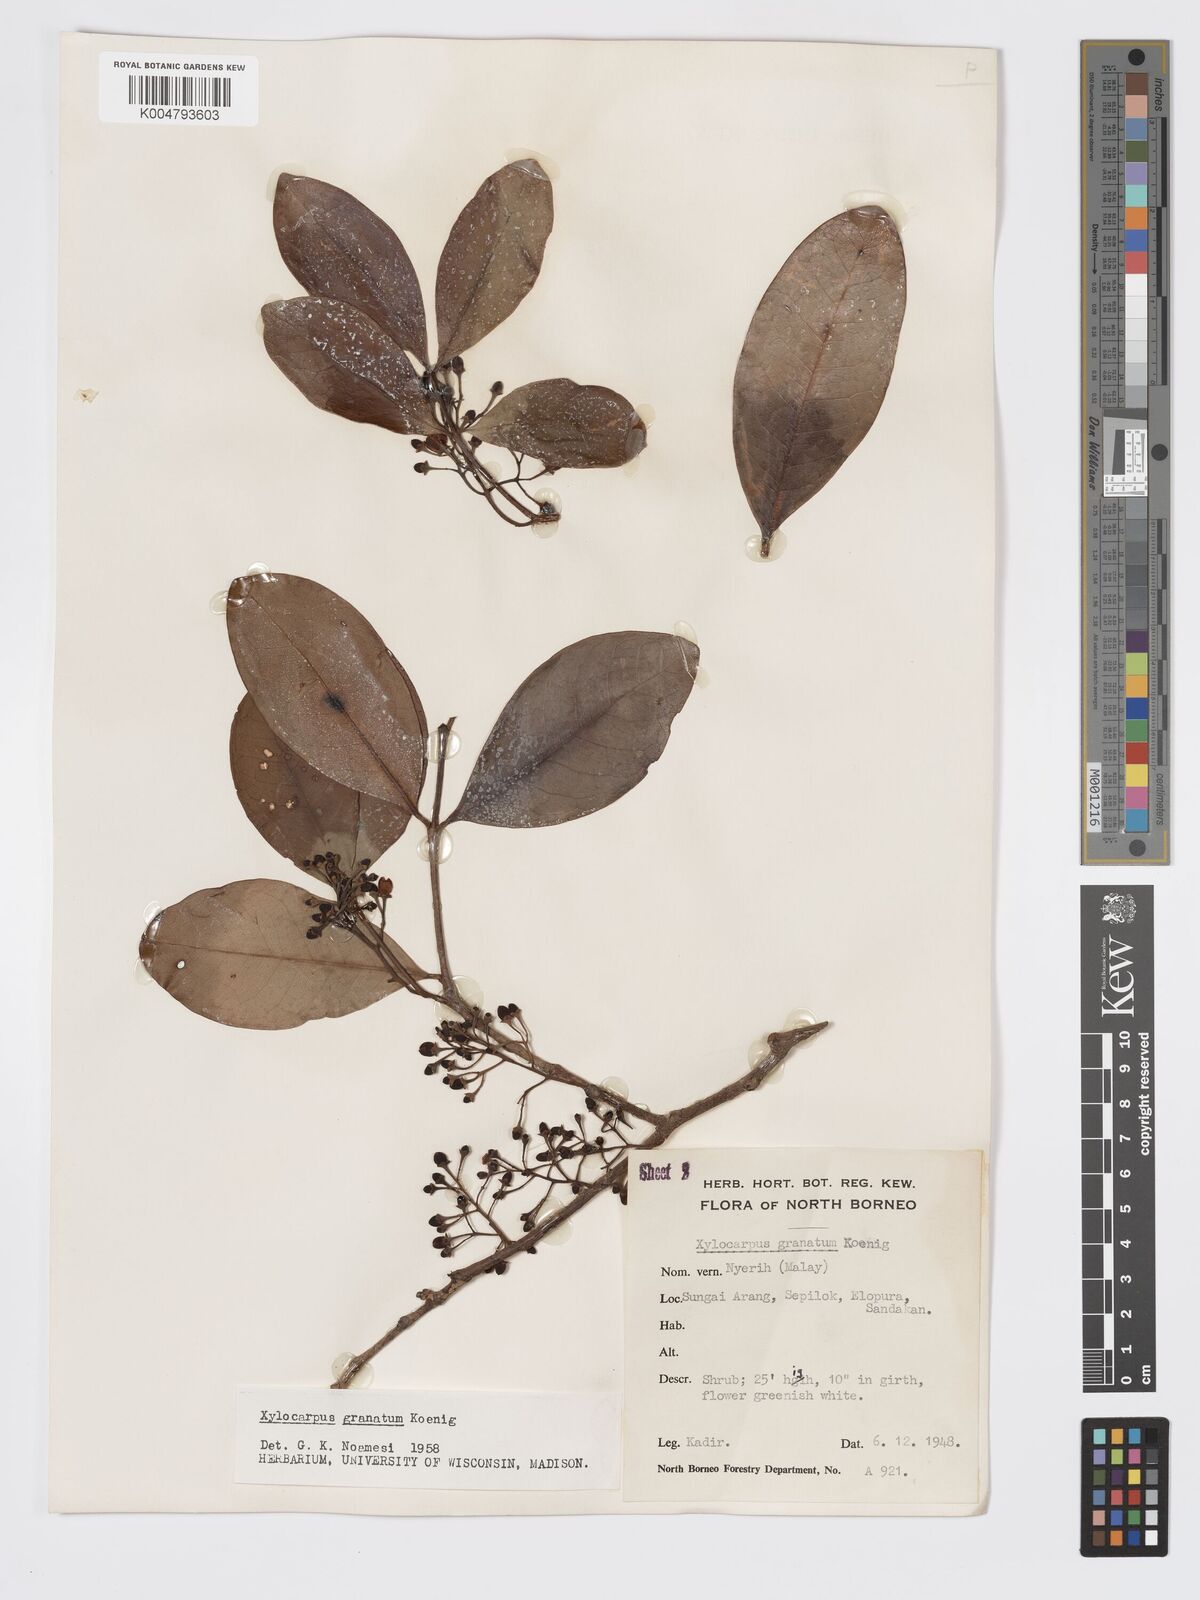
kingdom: Plantae
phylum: Tracheophyta
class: Magnoliopsida
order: Sapindales
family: Meliaceae
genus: Xylocarpus
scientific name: Xylocarpus granatum
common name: Apple mangrove
